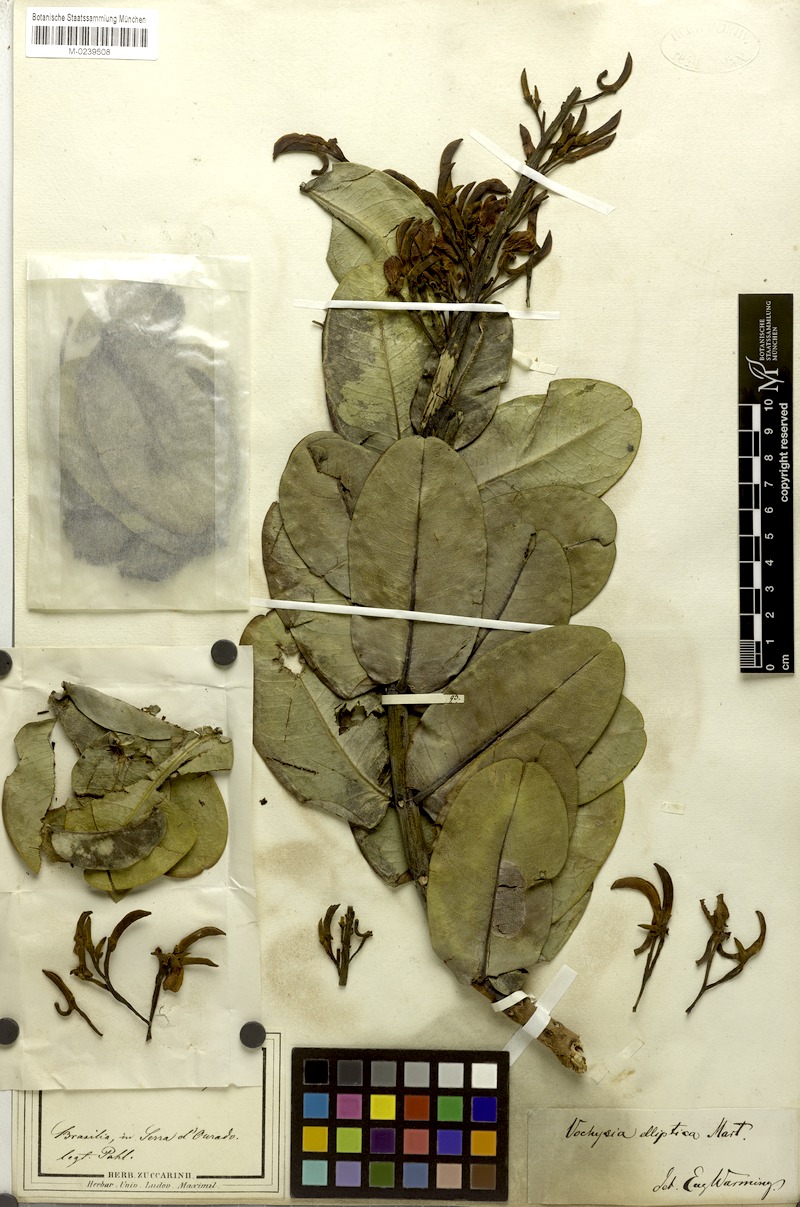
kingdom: Plantae
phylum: Tracheophyta
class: Magnoliopsida
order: Myrtales
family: Vochysiaceae
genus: Vochysia
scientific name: Vochysia elliptica
